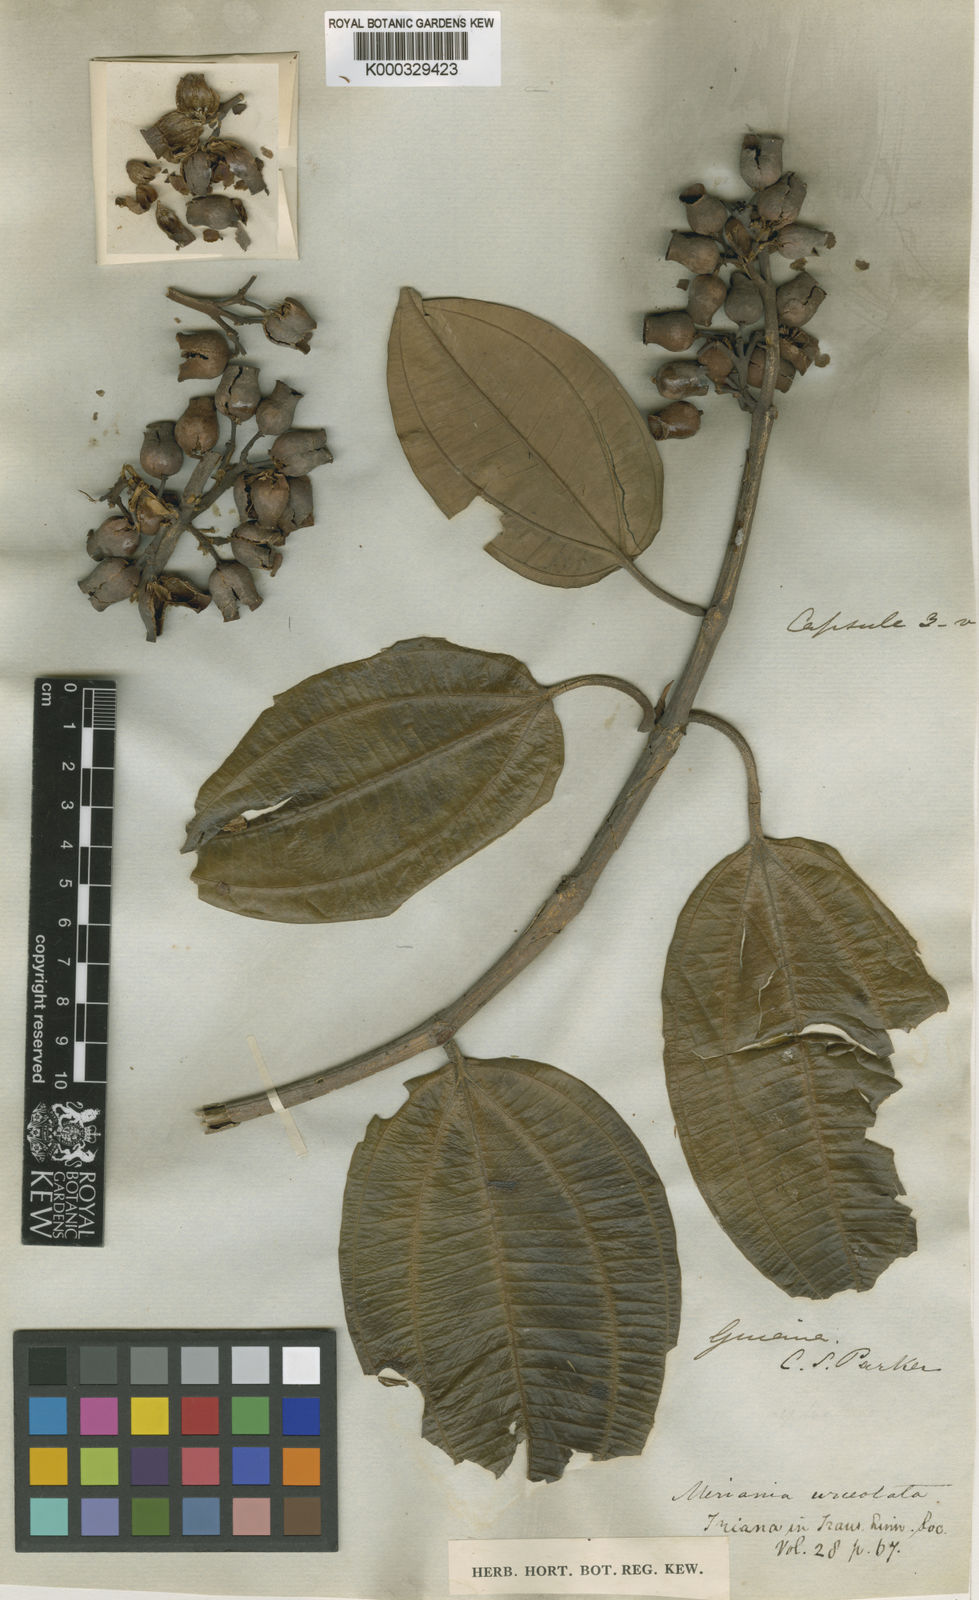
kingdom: Plantae
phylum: Tracheophyta
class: Magnoliopsida
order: Myrtales
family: Melastomataceae
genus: Meriania
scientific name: Meriania urceolata
